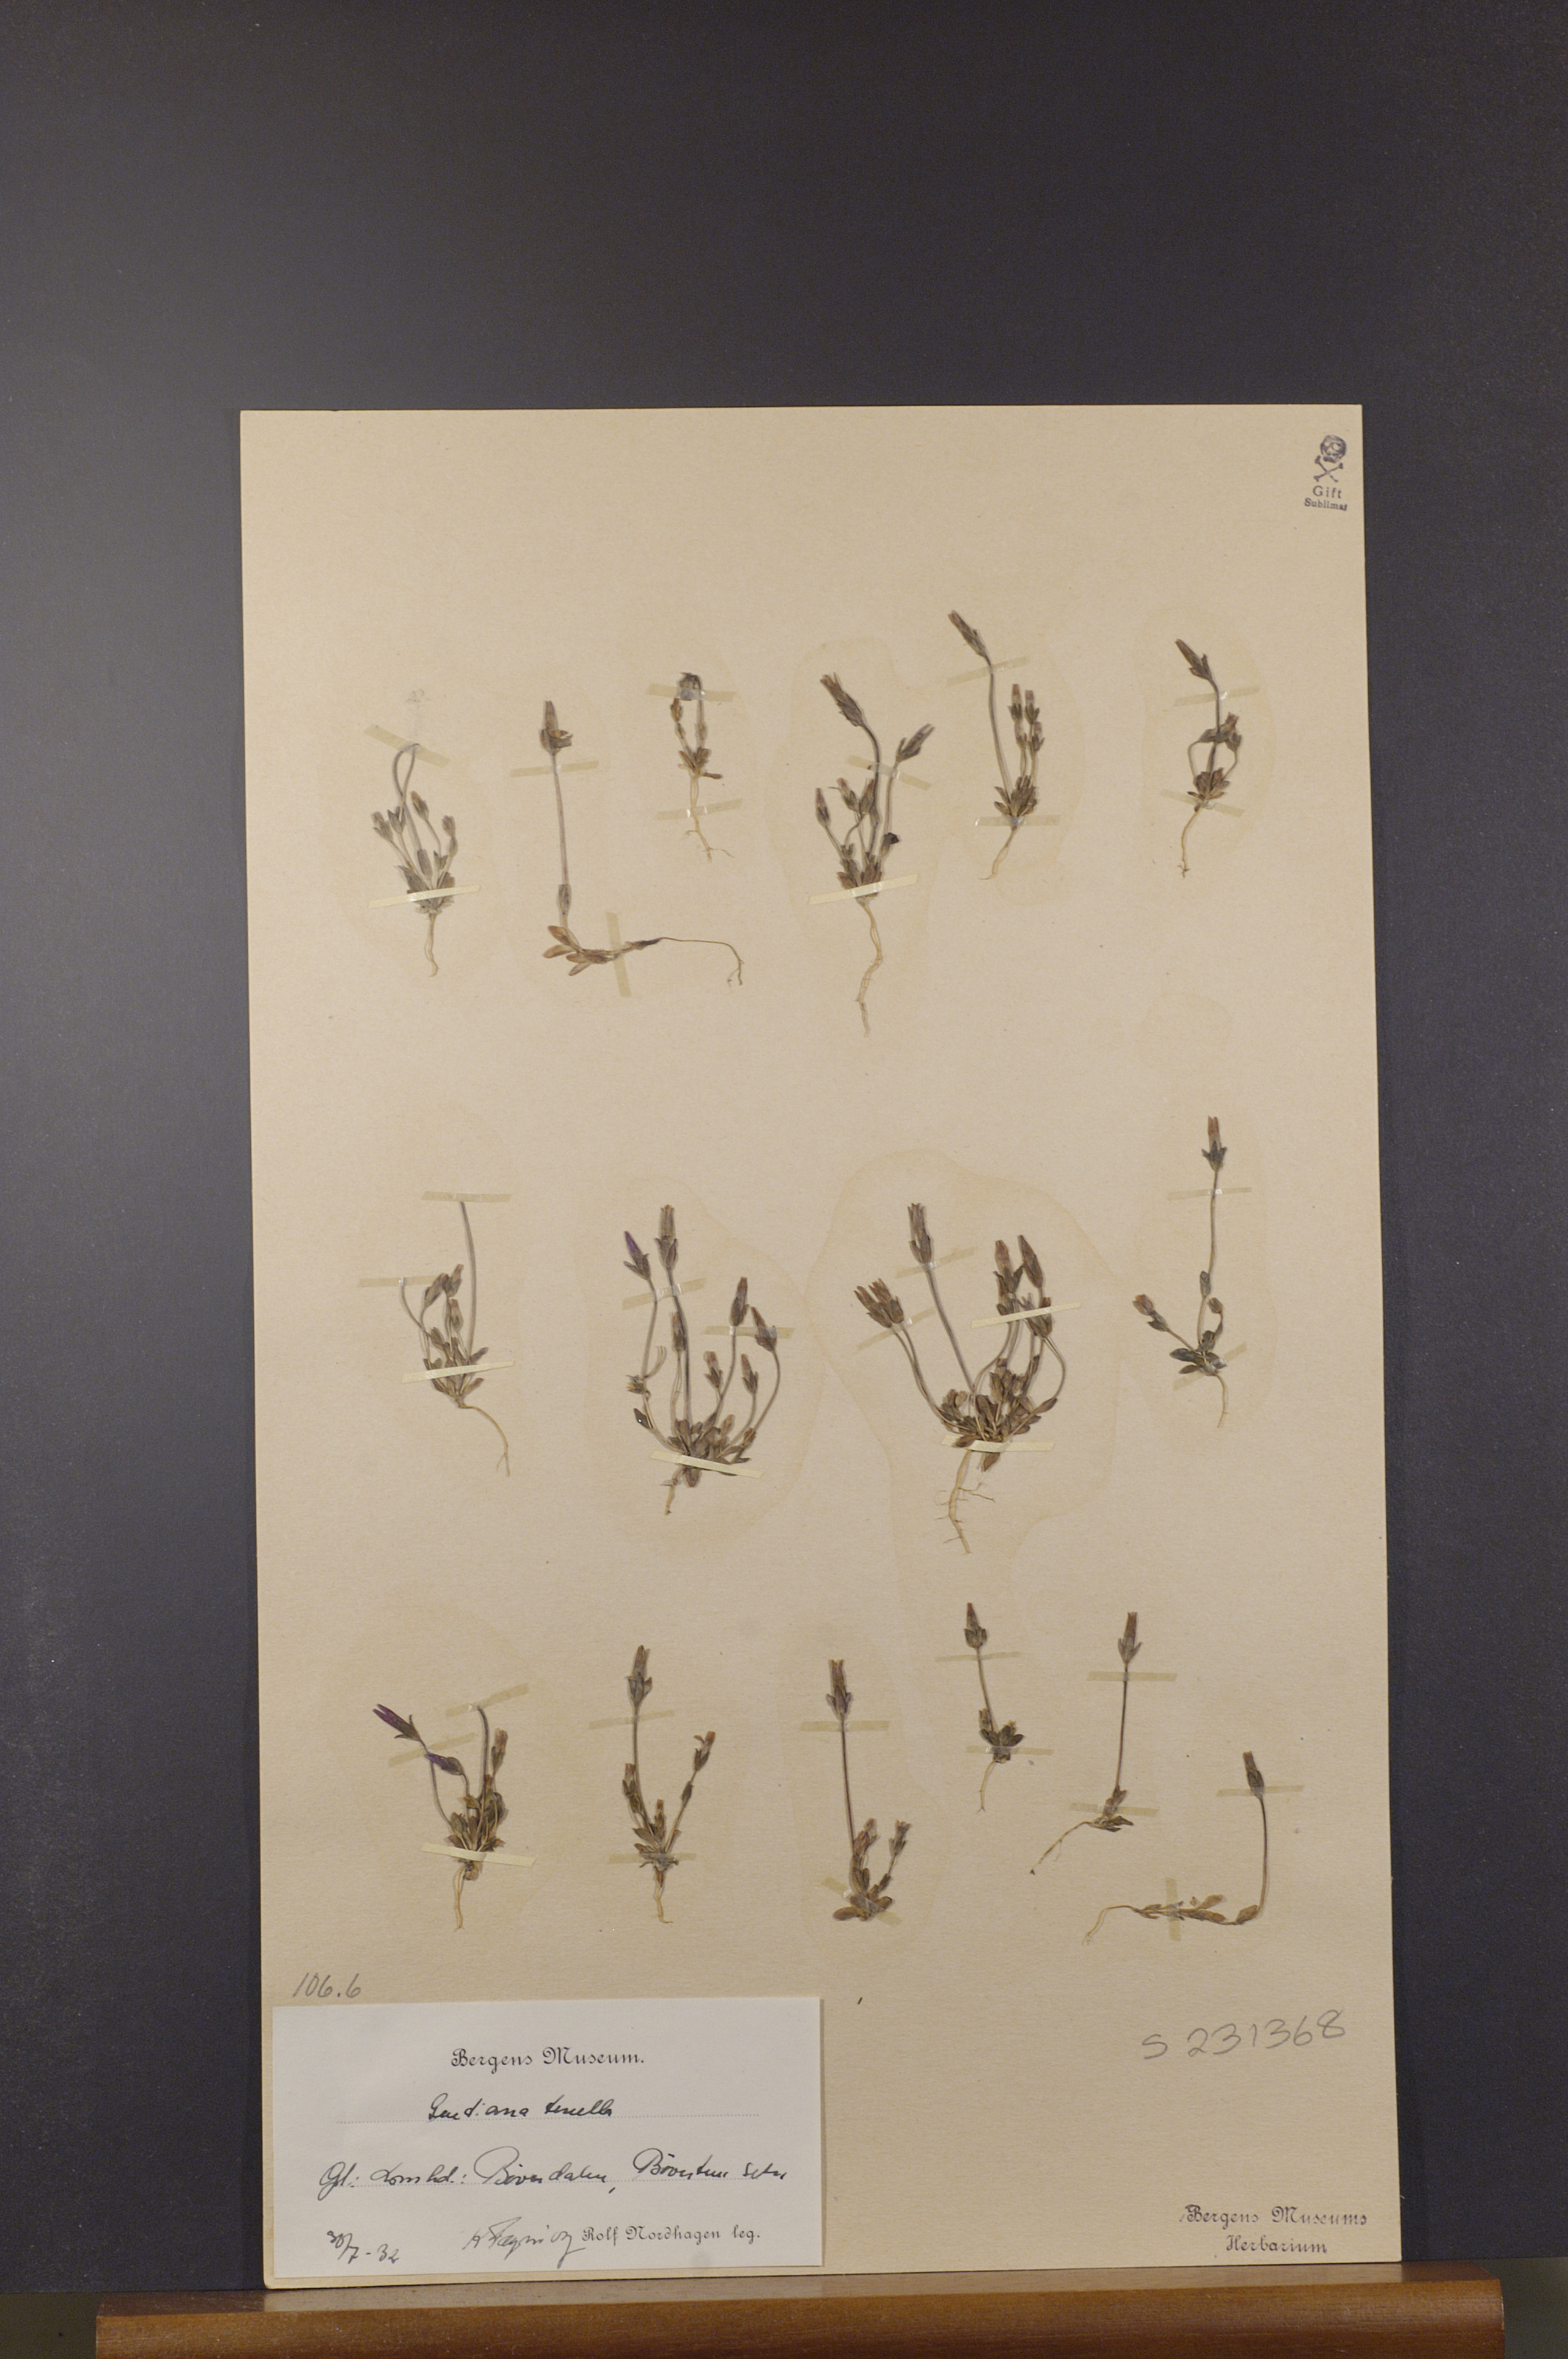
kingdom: Plantae
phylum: Tracheophyta
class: Magnoliopsida
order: Gentianales
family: Gentianaceae
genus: Comastoma
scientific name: Comastoma tenellum
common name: Dane's dwarf gentian
